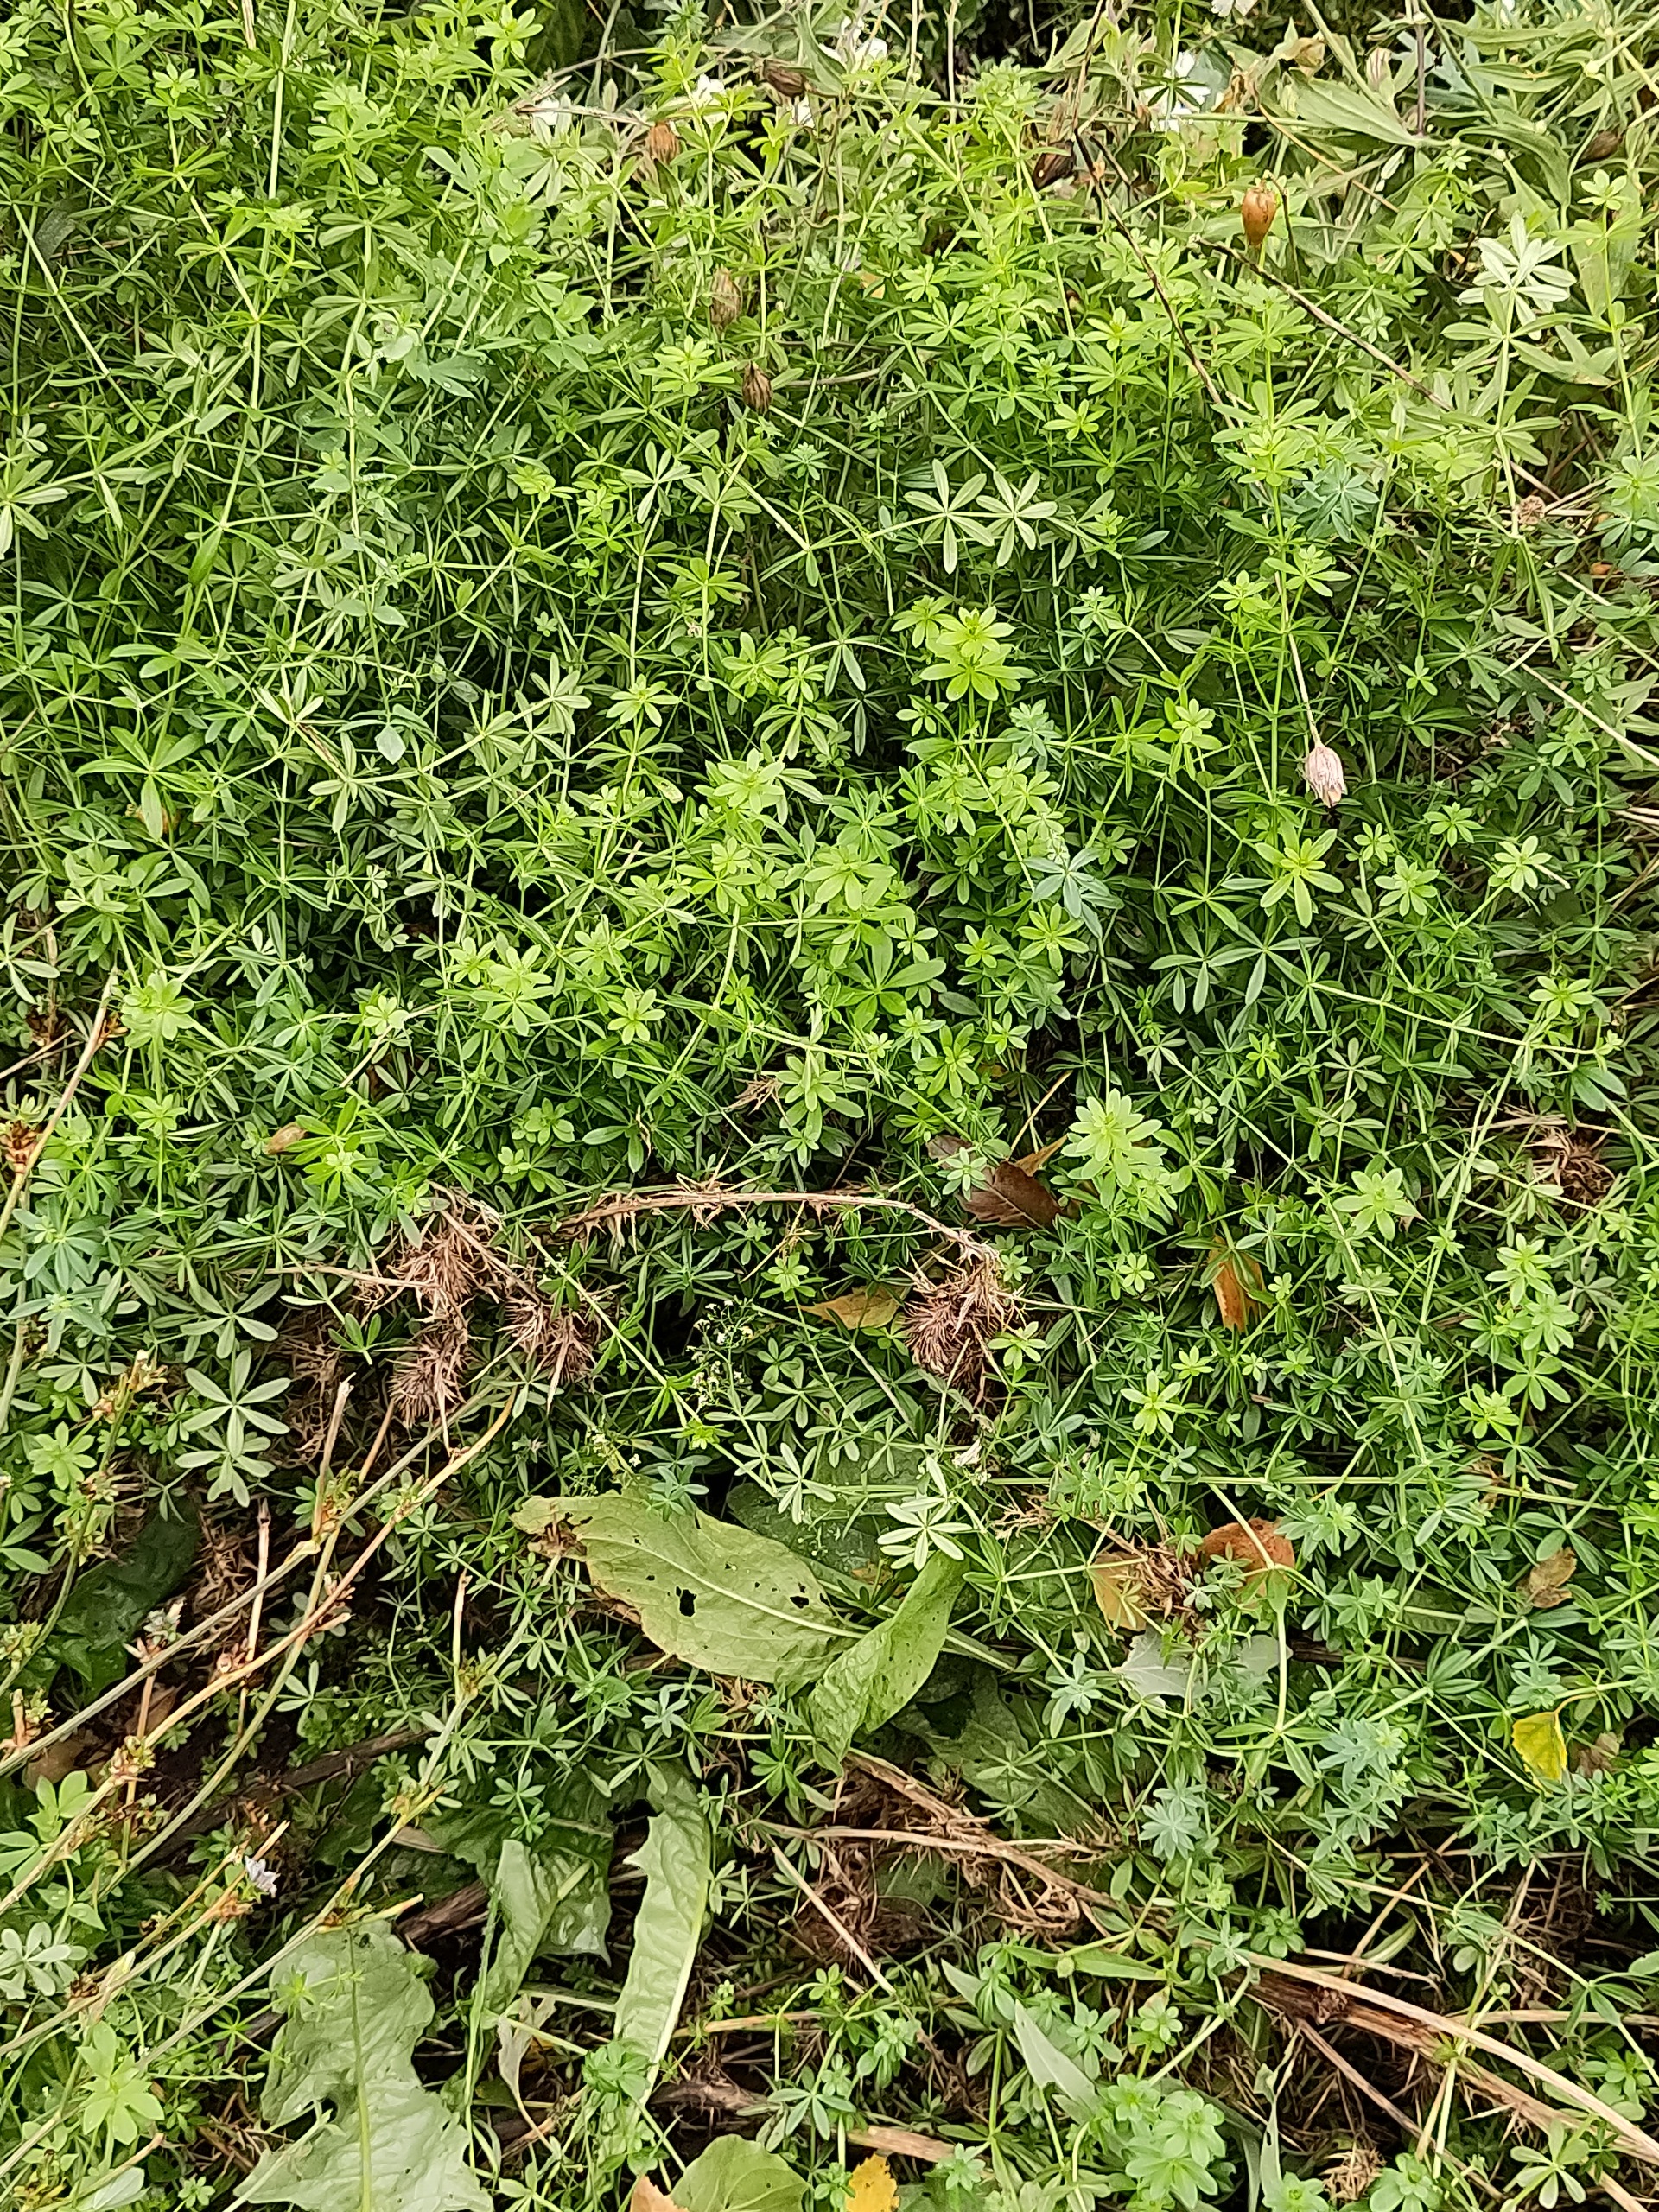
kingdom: Plantae
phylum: Tracheophyta
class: Magnoliopsida
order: Gentianales
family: Rubiaceae
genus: Galium
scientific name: Galium mollugo
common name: Hvid snerre
